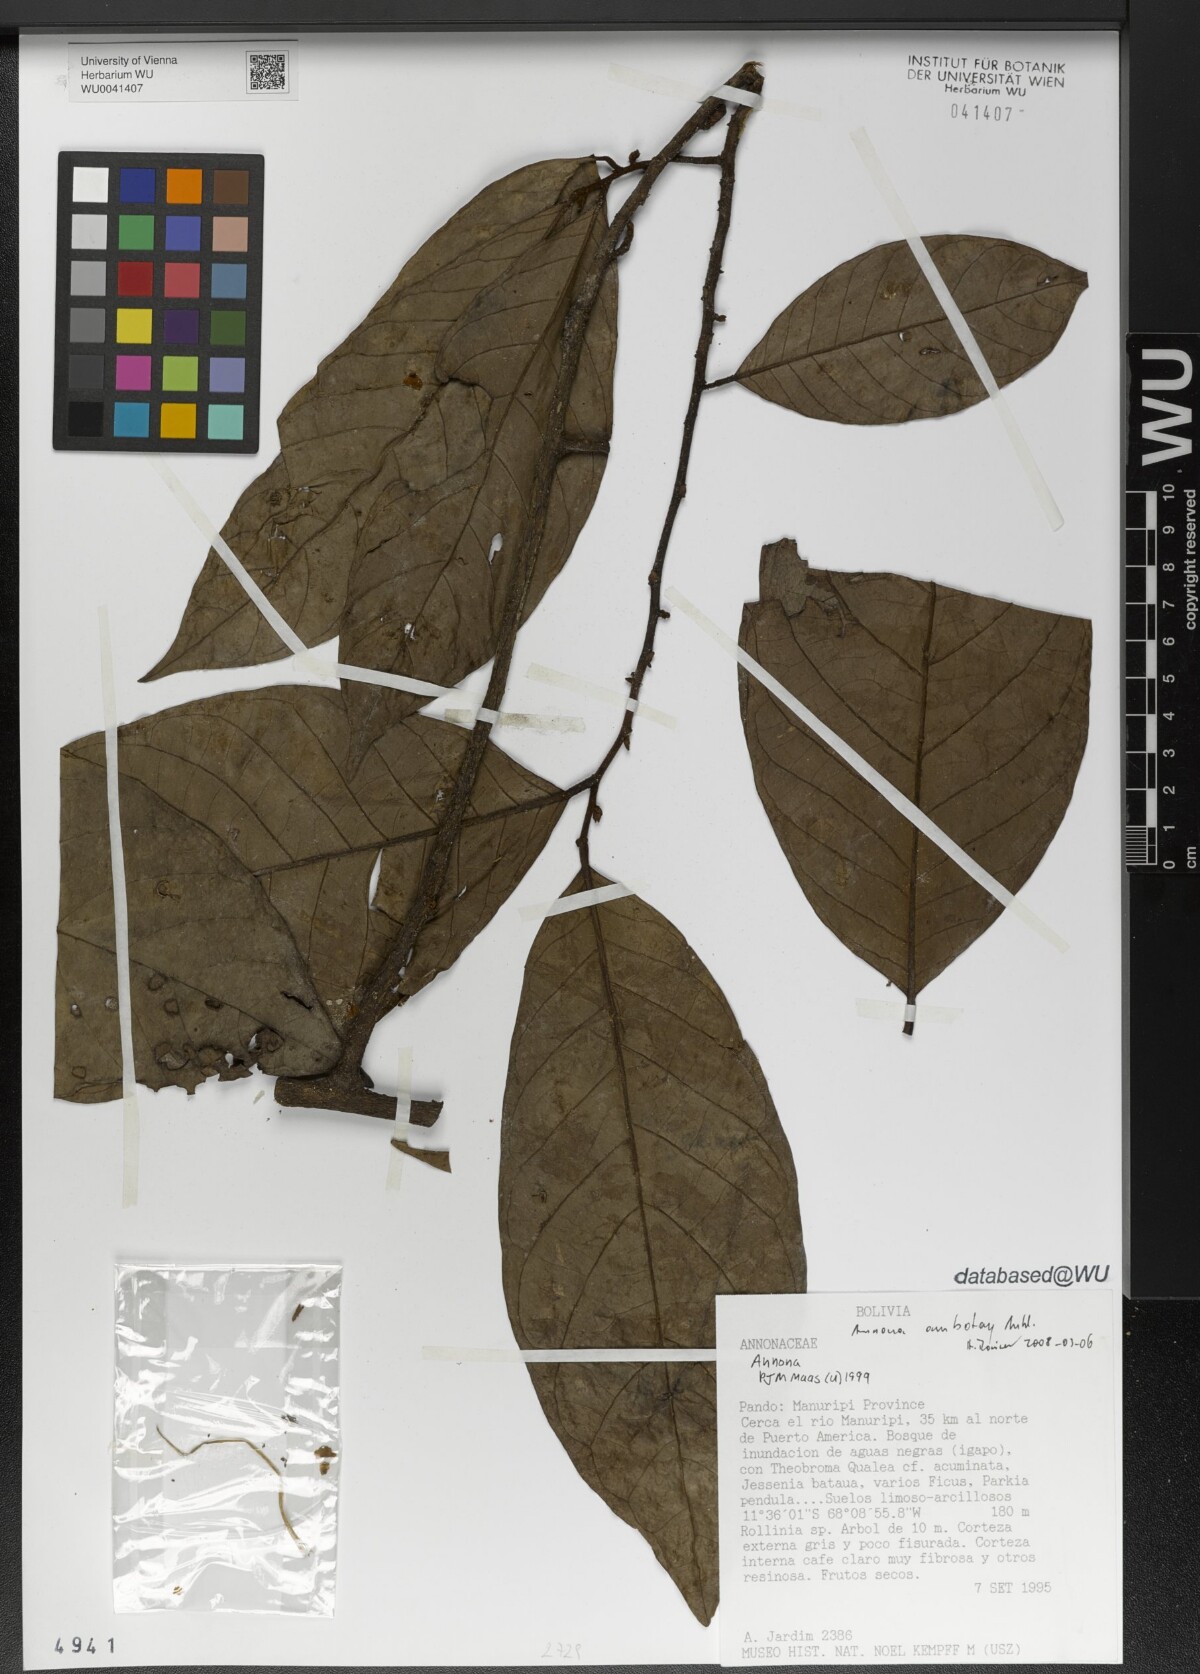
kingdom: Plantae
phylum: Tracheophyta
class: Magnoliopsida
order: Magnoliales
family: Annonaceae
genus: Annona
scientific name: Annona ambotay
